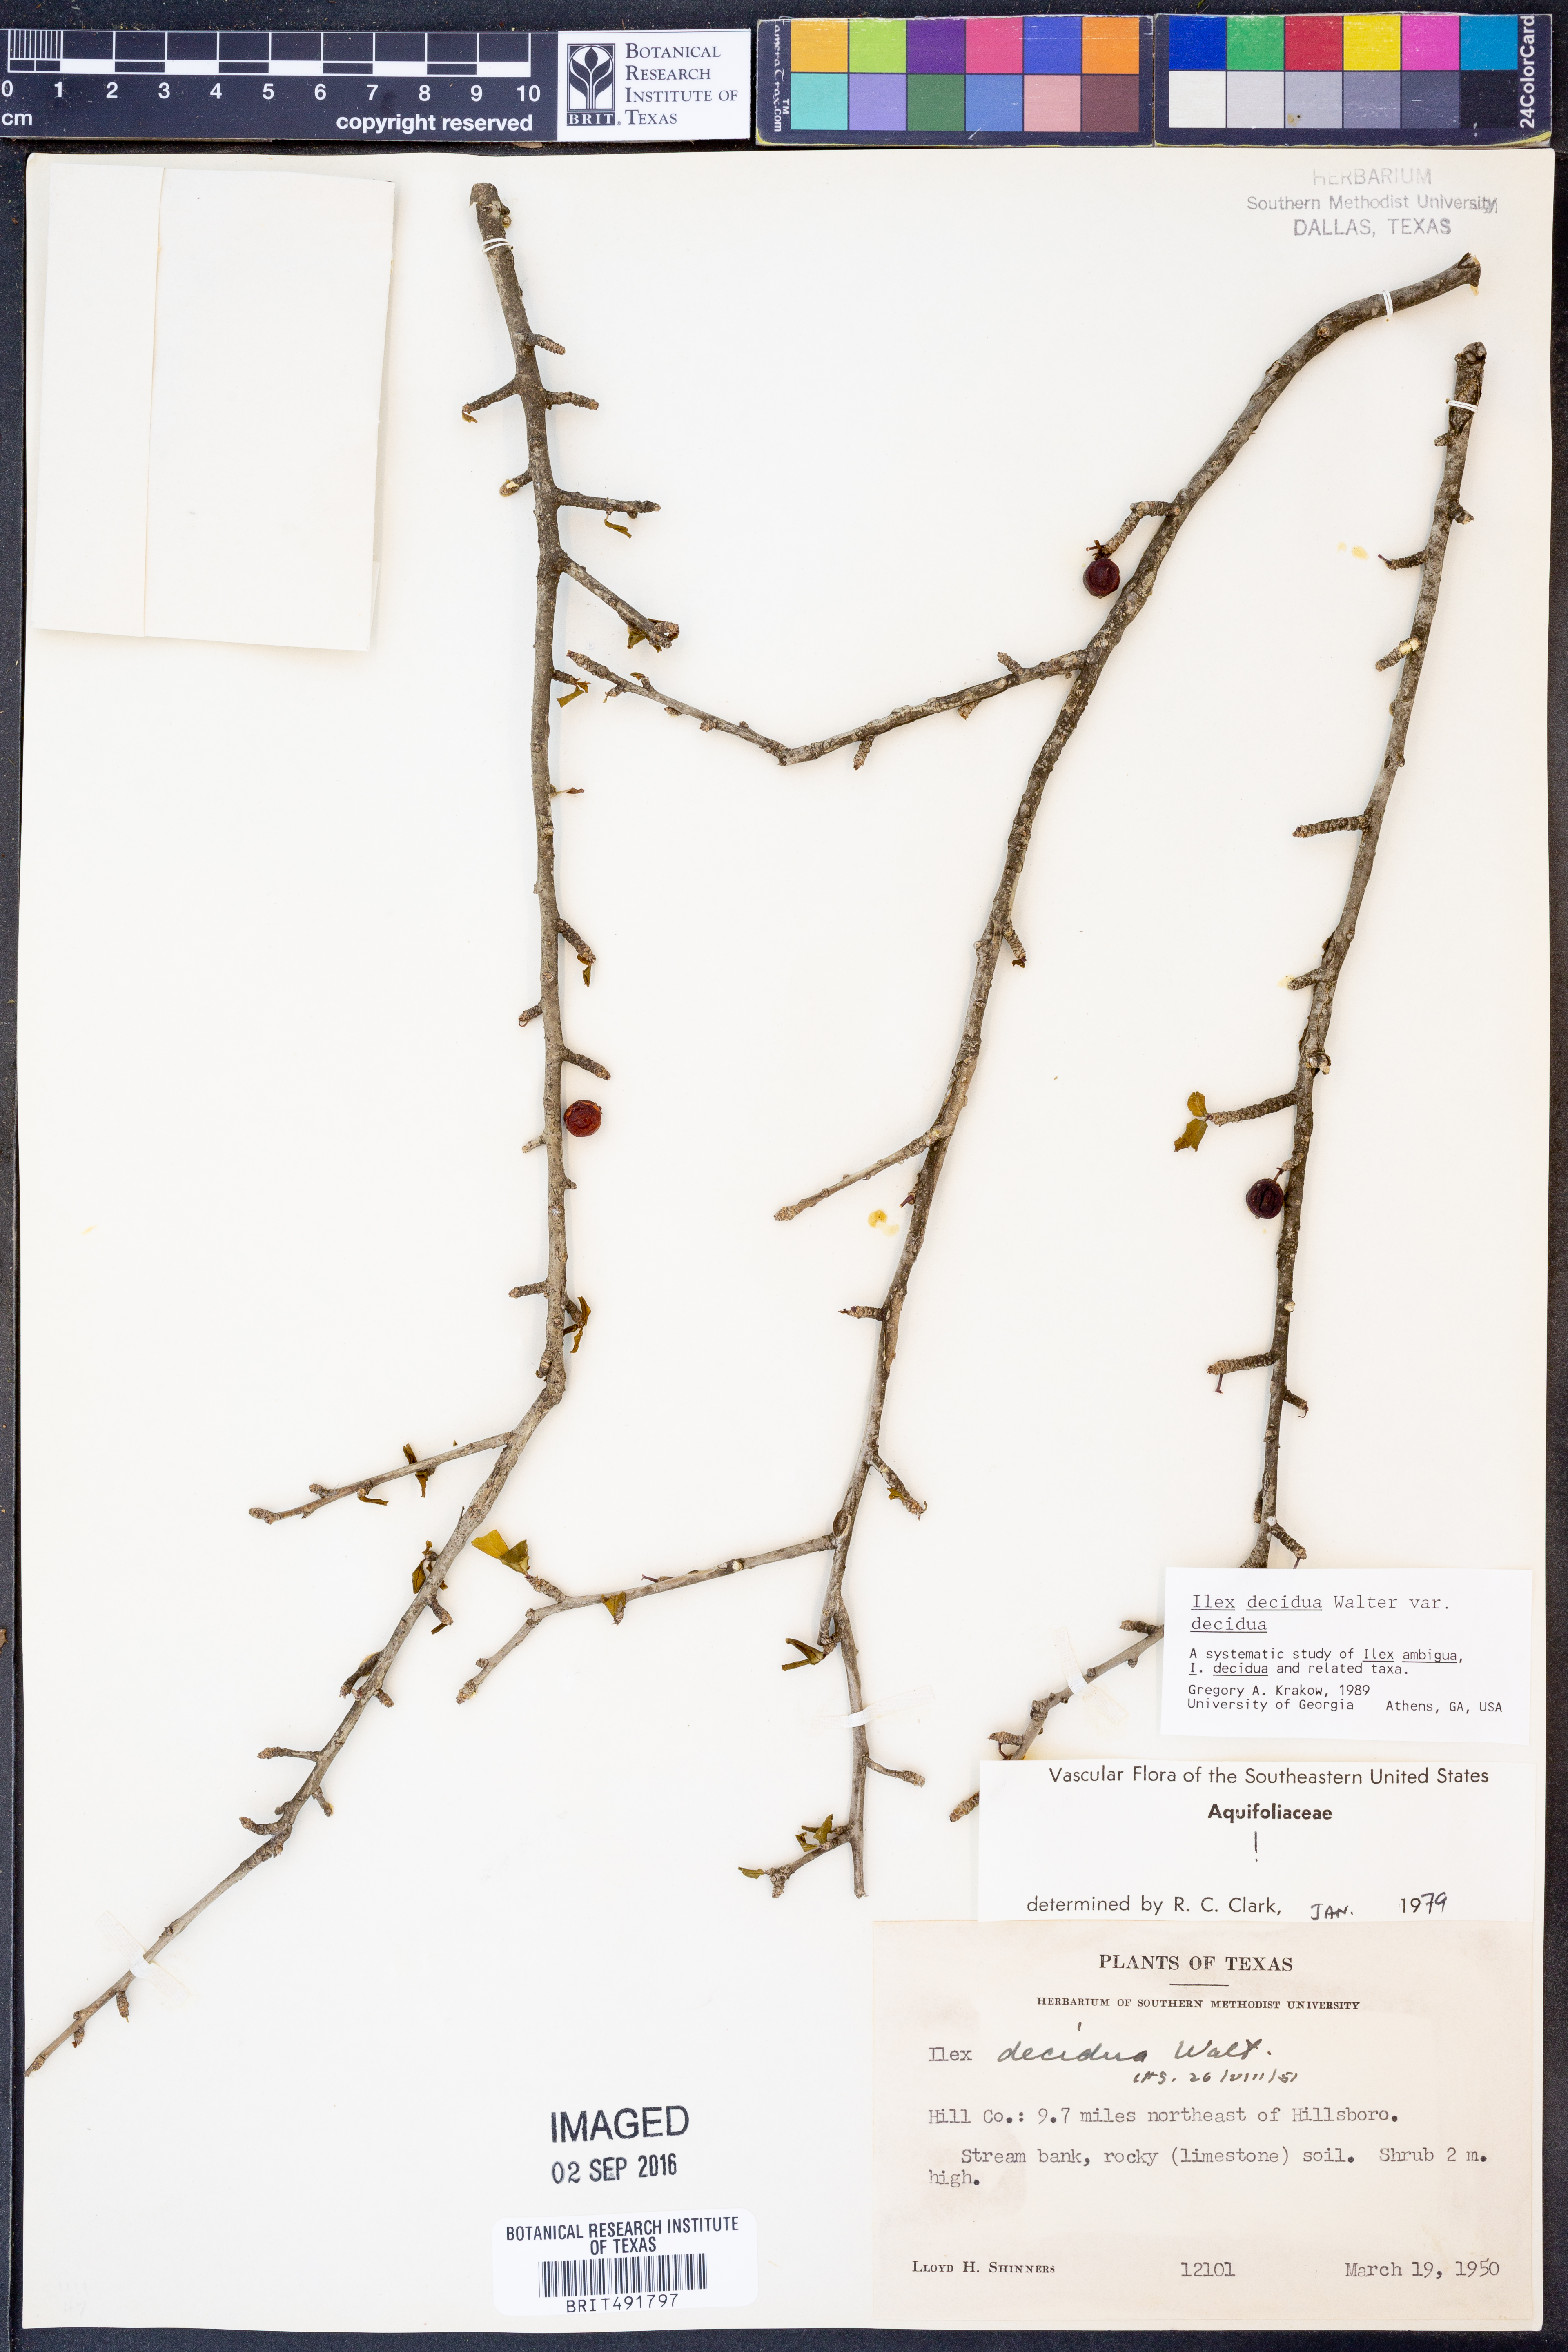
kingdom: Plantae
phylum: Tracheophyta
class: Magnoliopsida
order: Aquifoliales
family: Aquifoliaceae
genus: Ilex
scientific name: Ilex decidua
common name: Possum-haw
